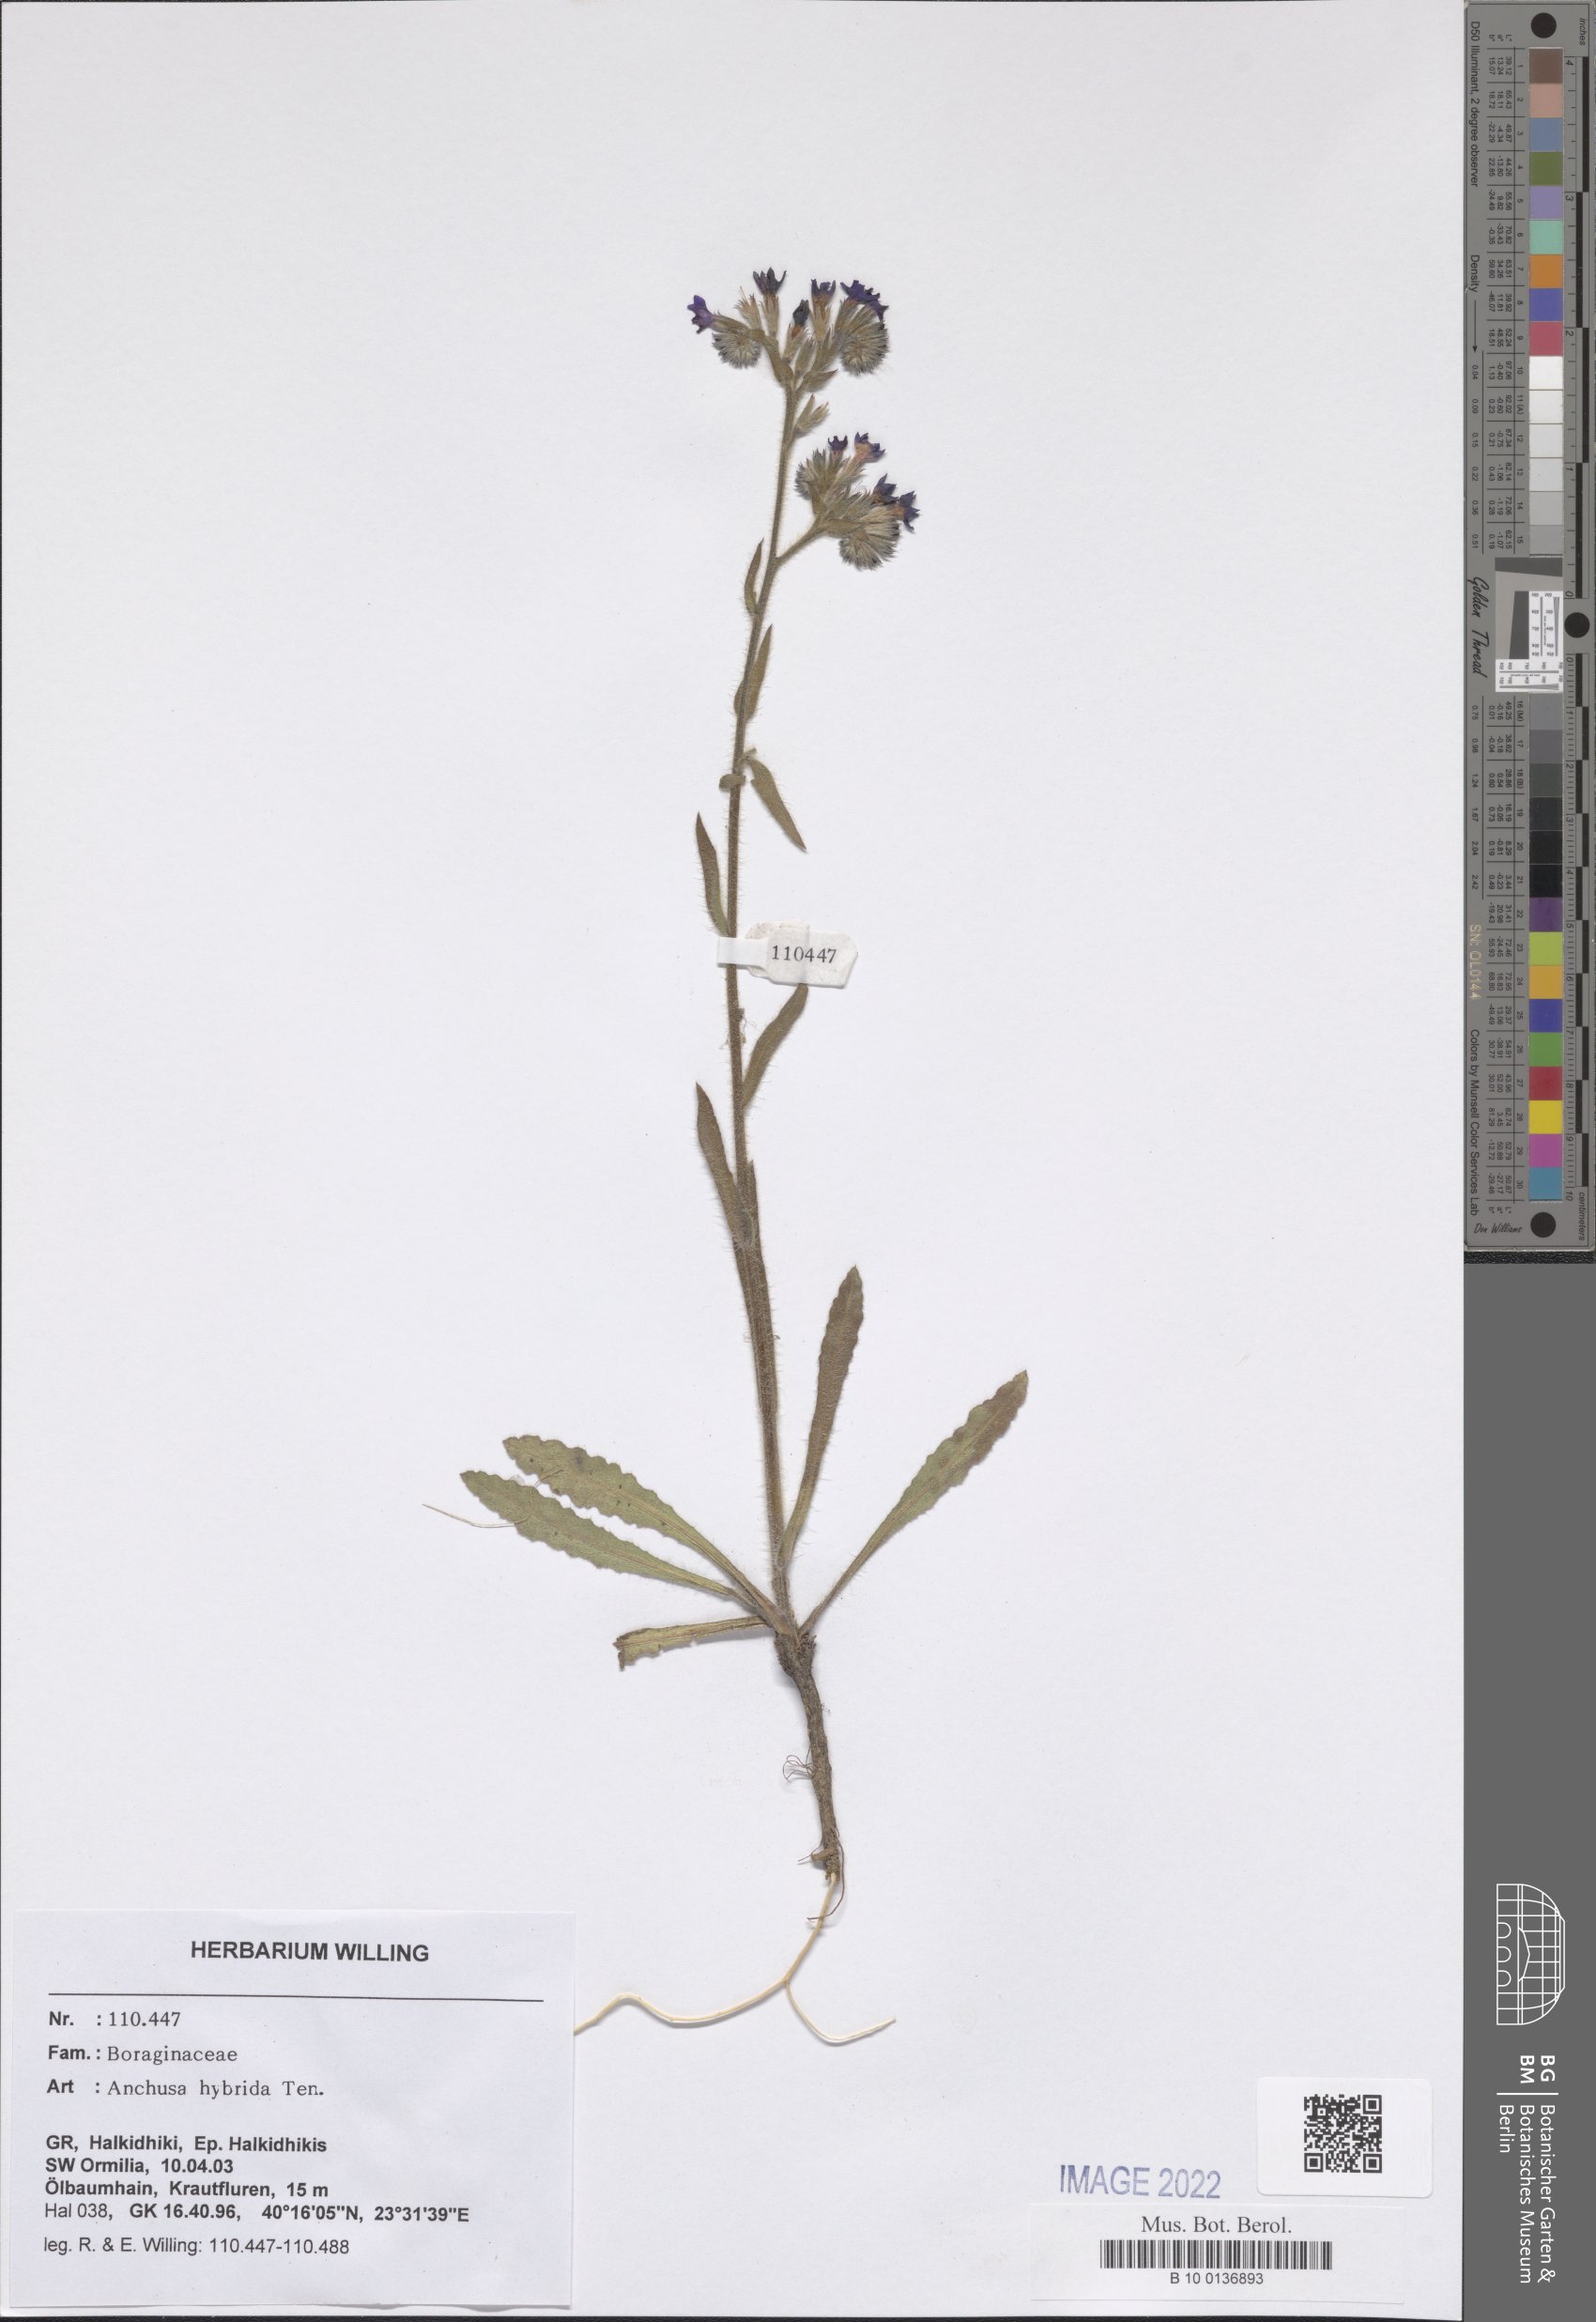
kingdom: Plantae
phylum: Tracheophyta
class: Magnoliopsida
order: Boraginales
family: Boraginaceae
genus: Anchusa
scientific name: Anchusa hybrida
